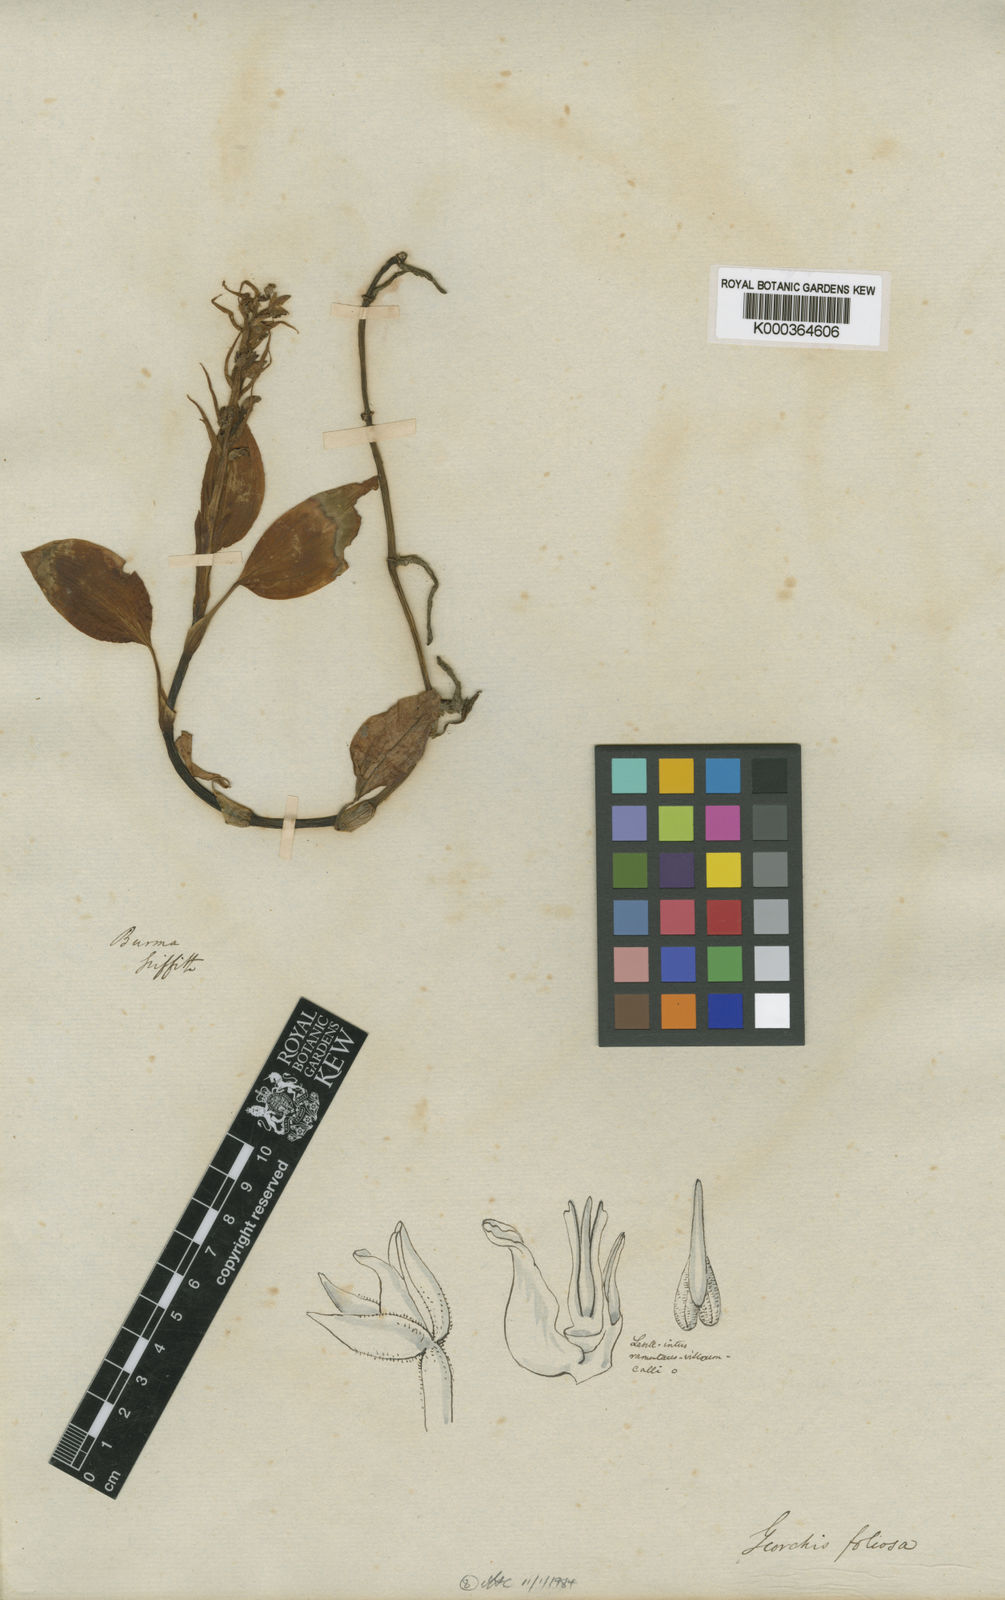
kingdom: Plantae
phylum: Tracheophyta
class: Liliopsida
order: Asparagales
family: Orchidaceae
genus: Goodyera
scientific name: Goodyera
